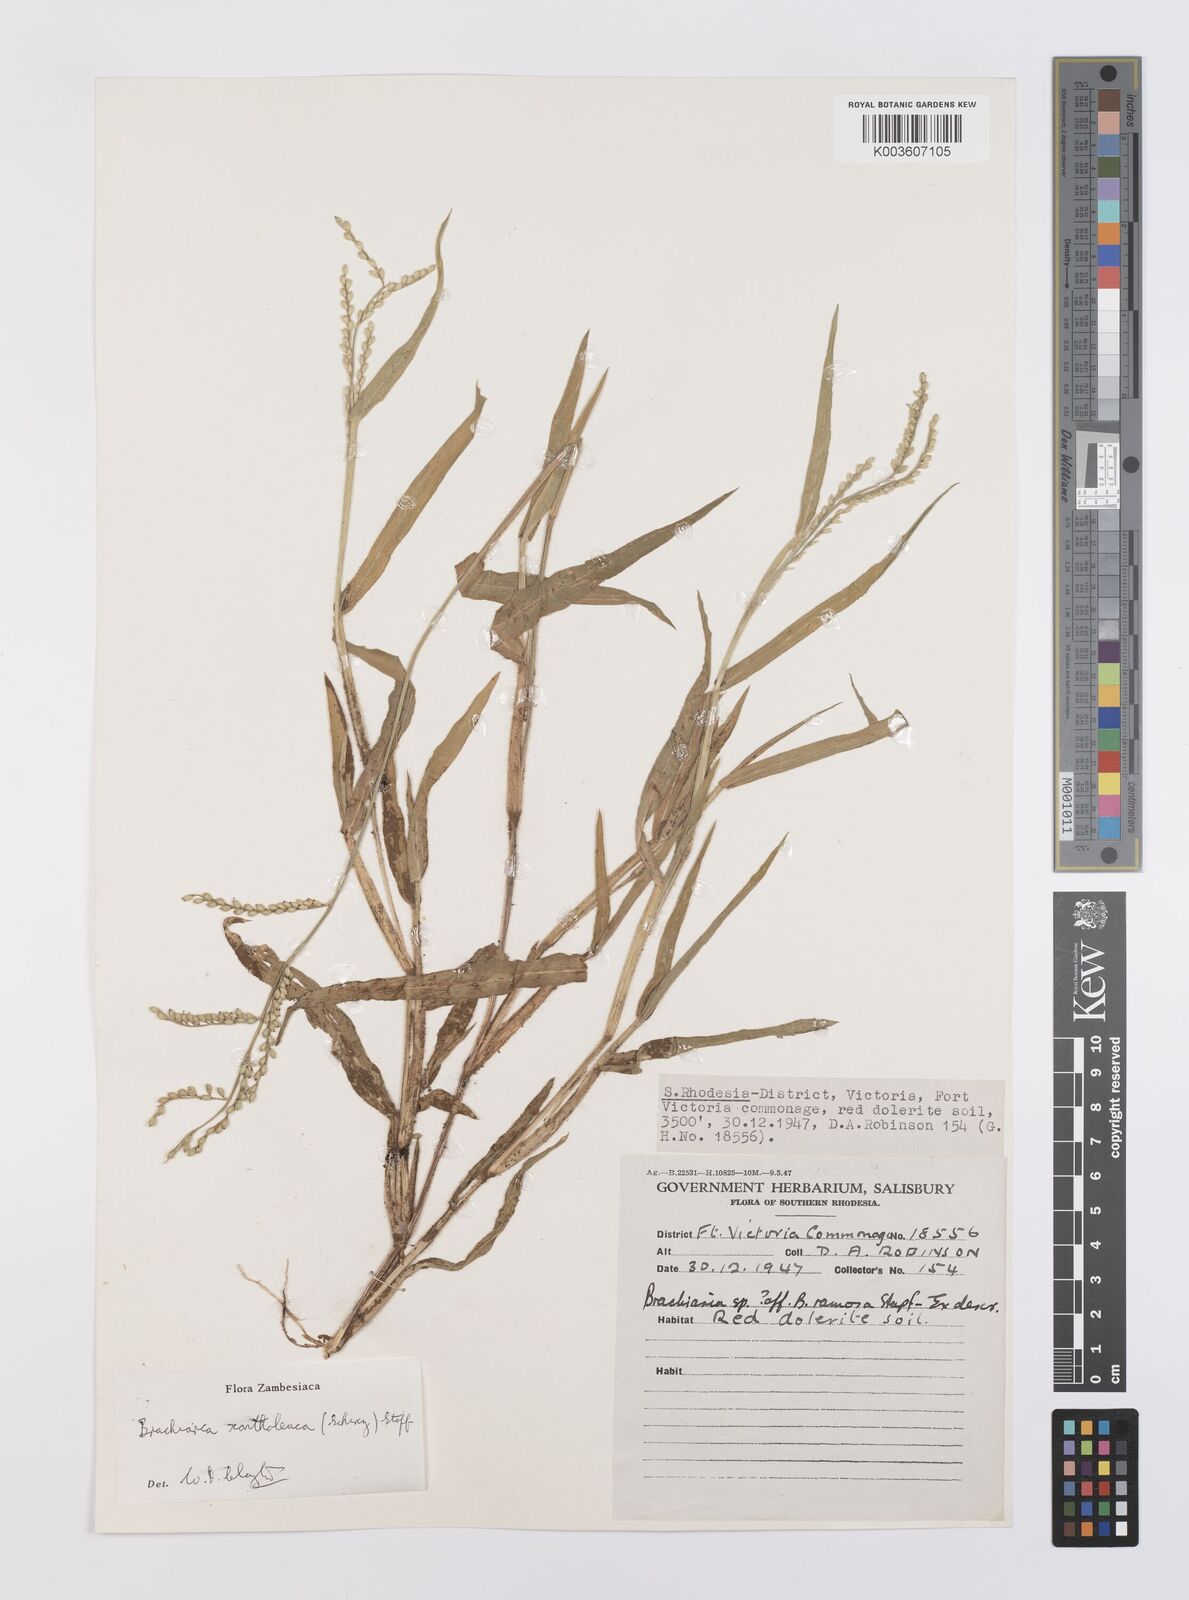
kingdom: Plantae
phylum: Tracheophyta
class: Liliopsida
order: Poales
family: Poaceae
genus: Urochloa
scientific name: Urochloa xantholeuca
